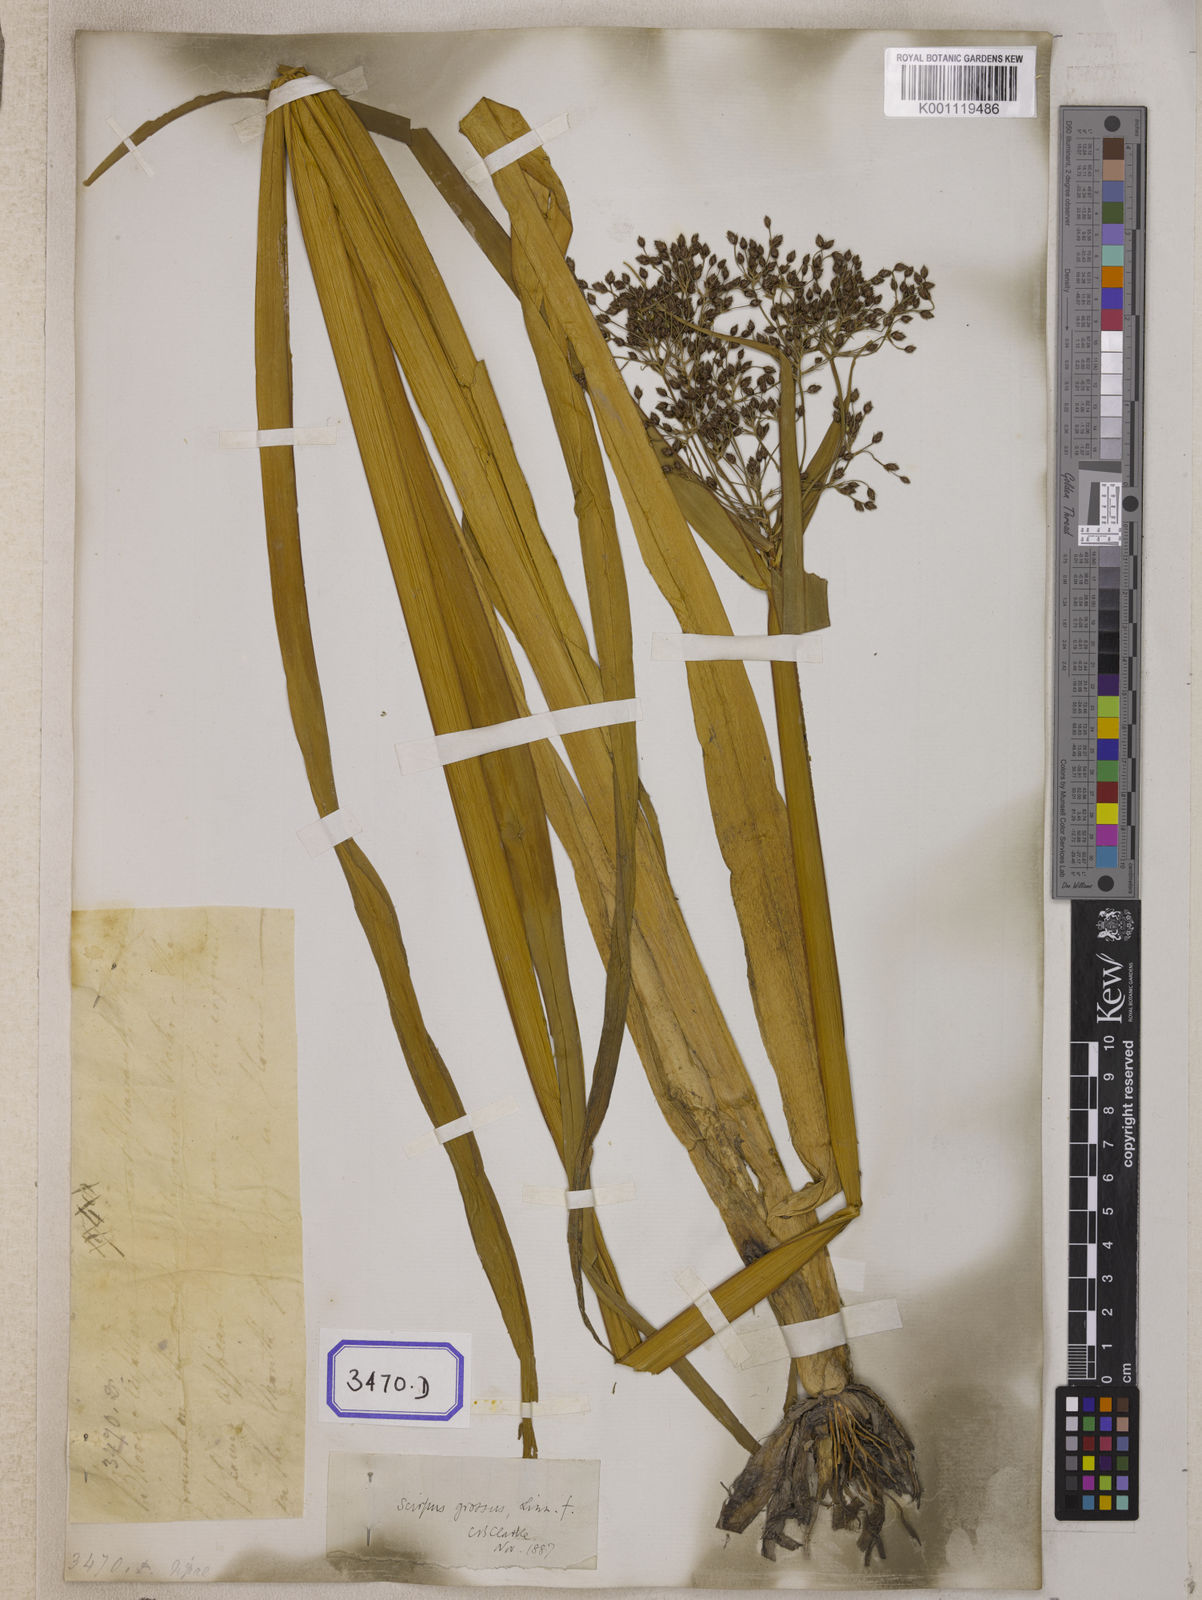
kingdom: Plantae
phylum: Tracheophyta
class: Liliopsida
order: Poales
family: Cyperaceae
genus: Isolepis
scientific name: Isolepis
